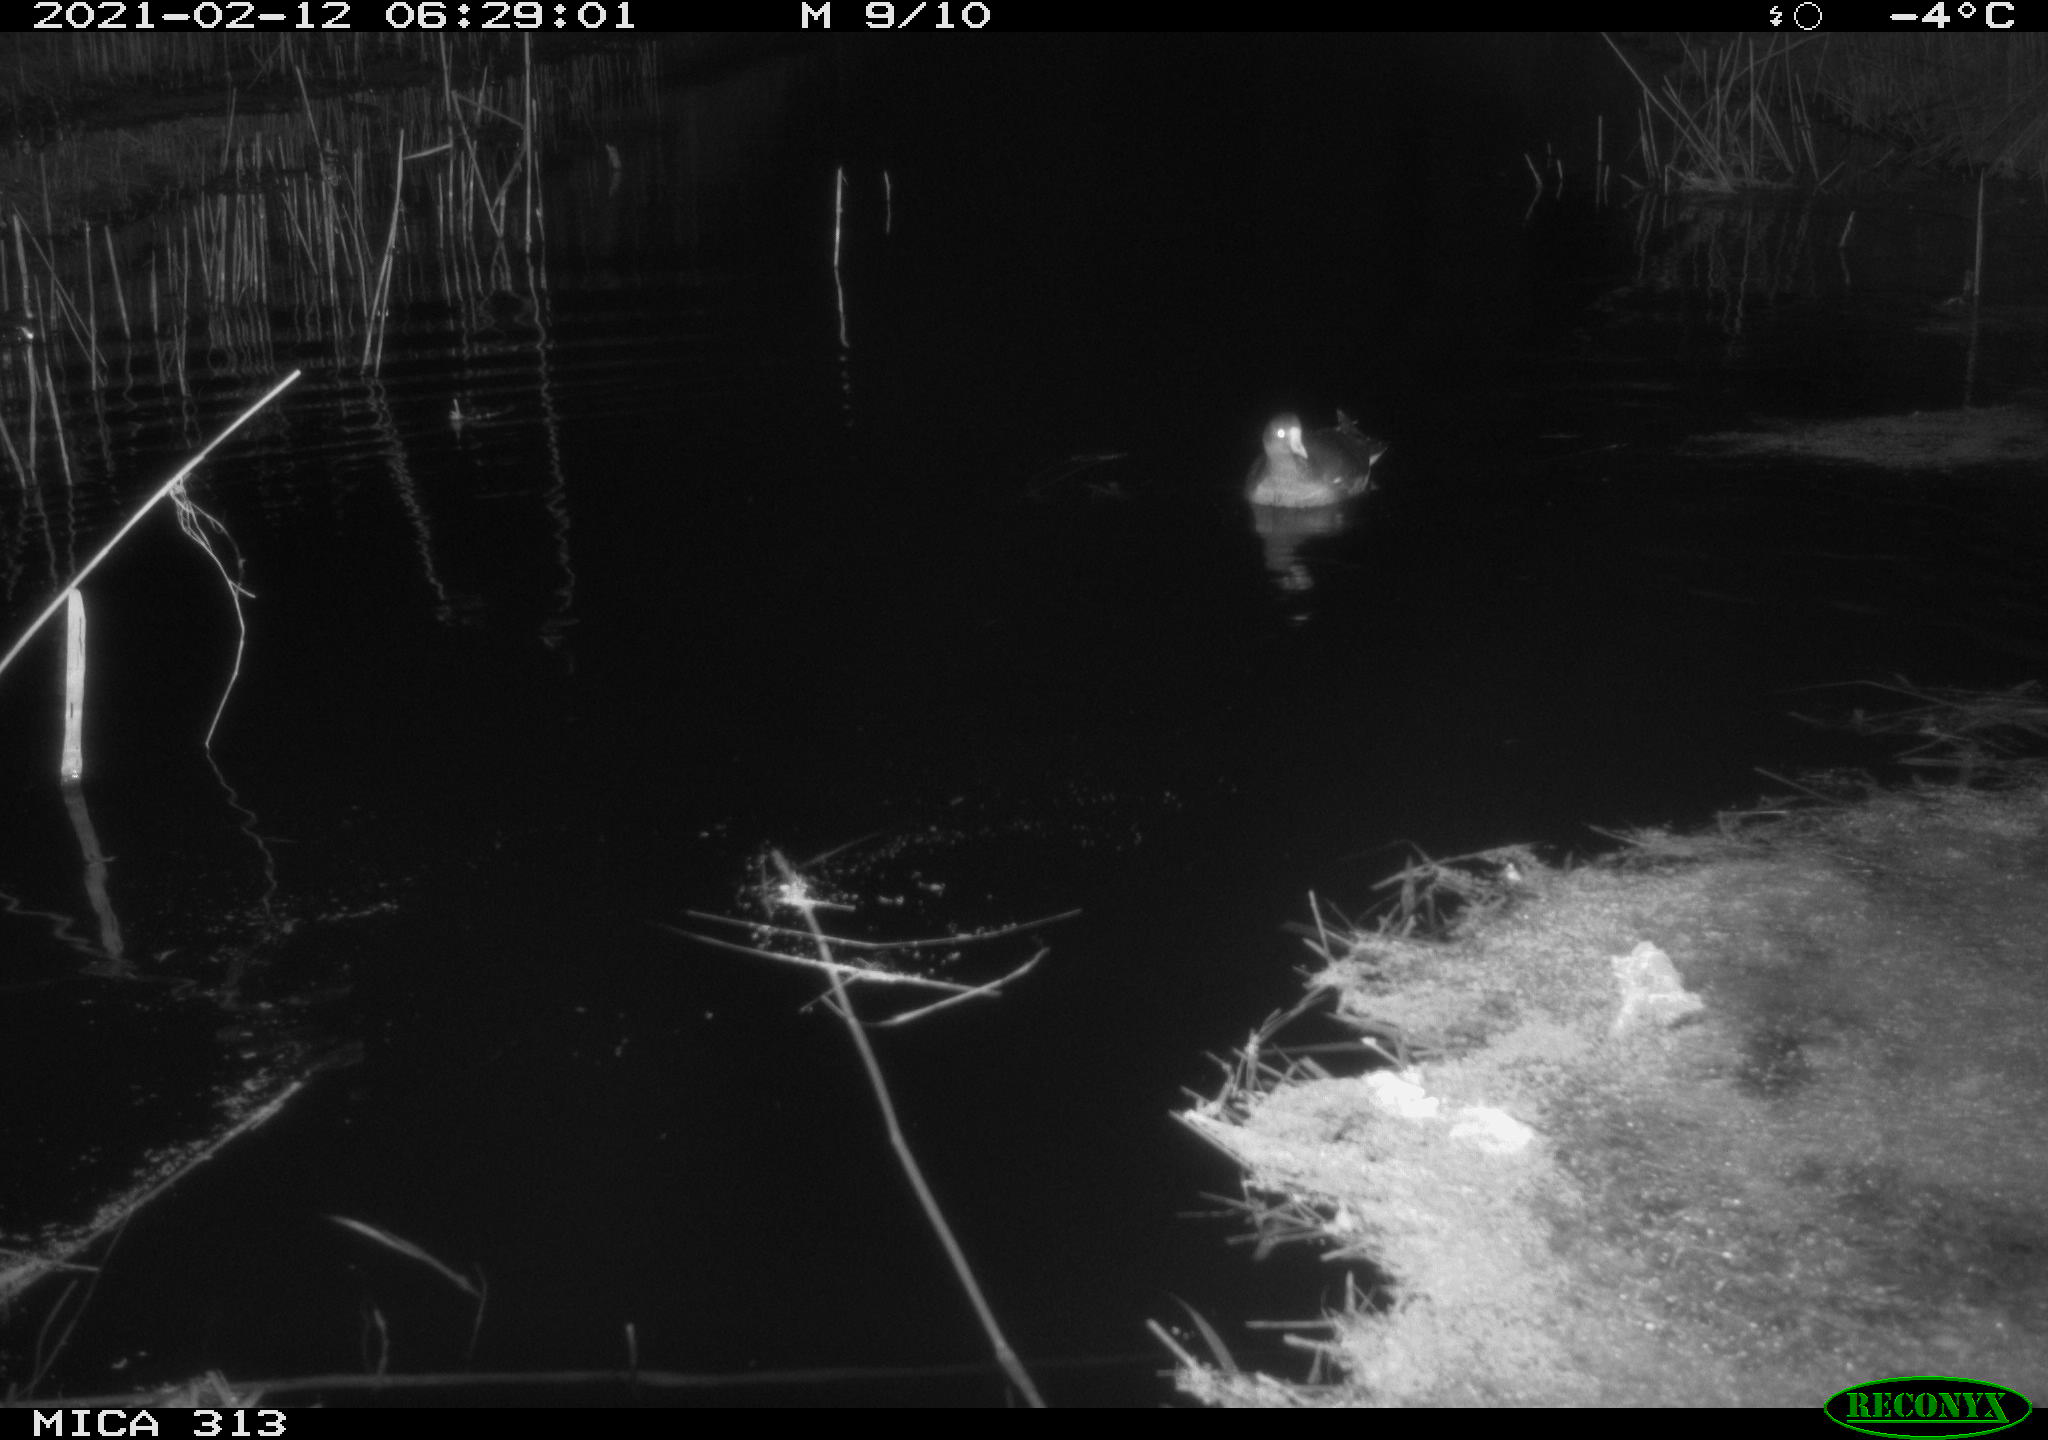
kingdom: Animalia
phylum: Chordata
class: Aves
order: Gruiformes
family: Rallidae
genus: Gallinula
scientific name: Gallinula chloropus
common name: Common moorhen
